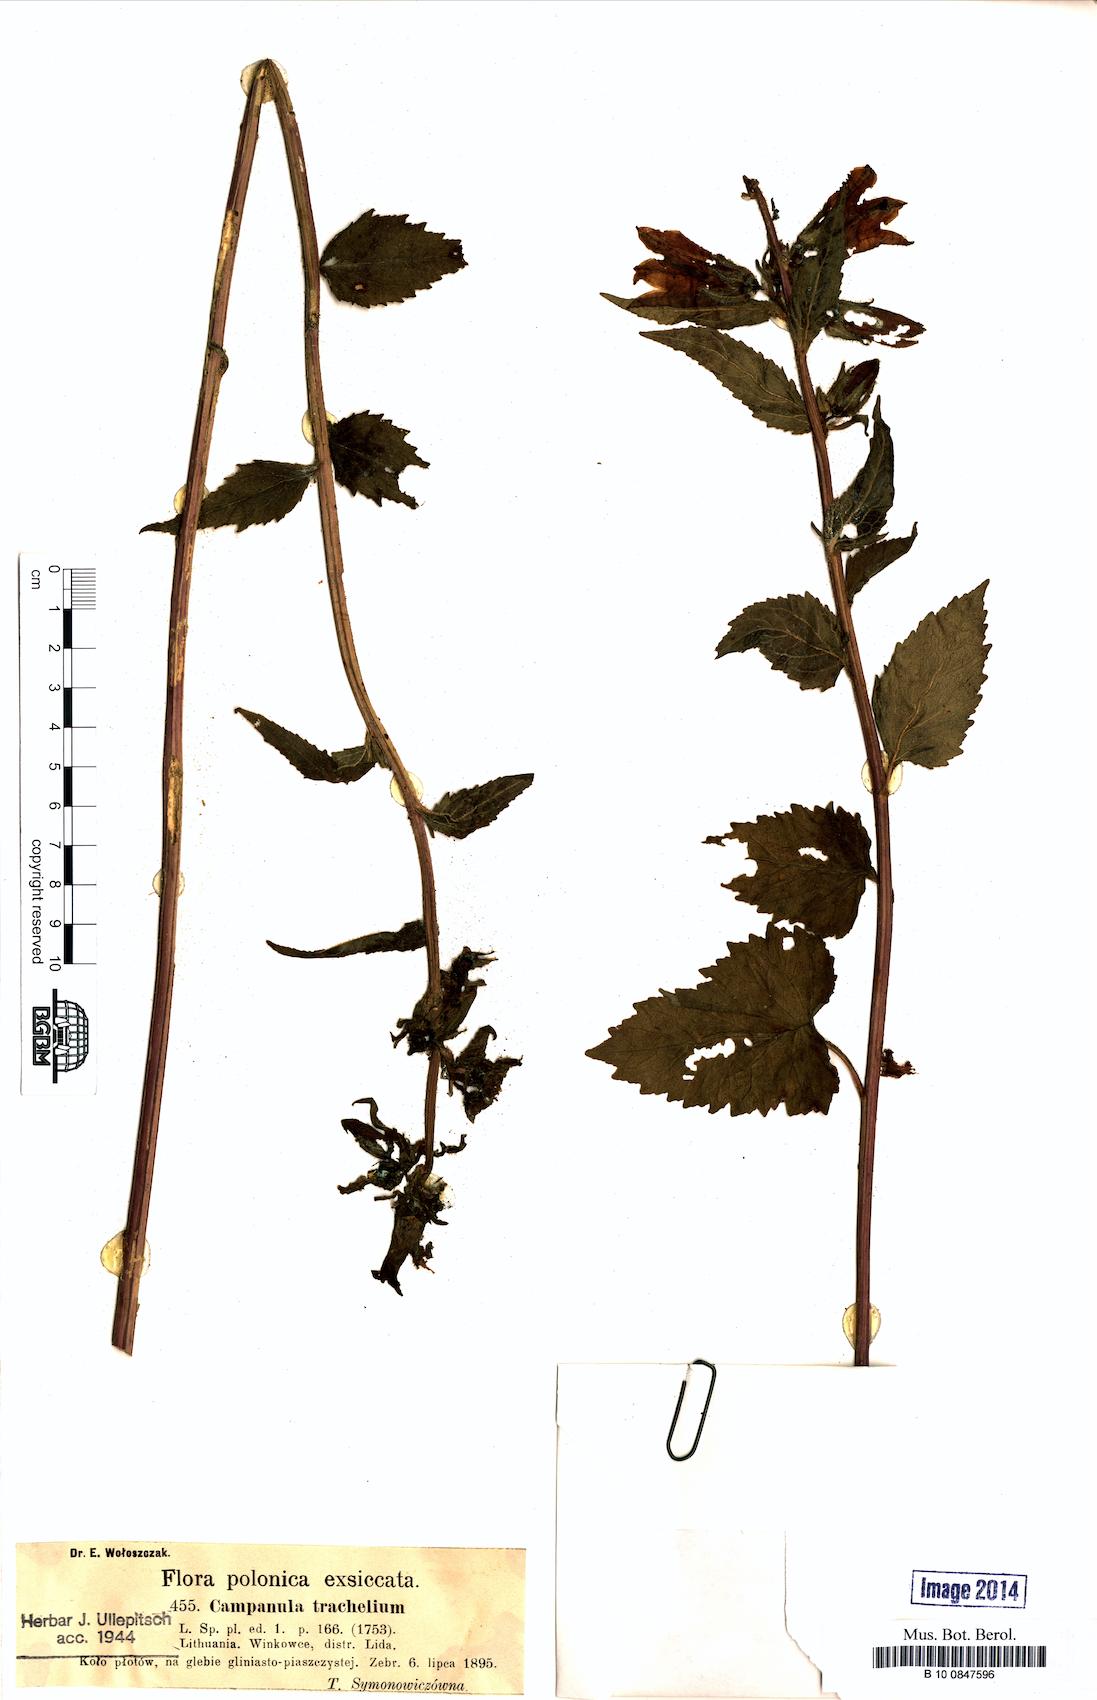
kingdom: Plantae
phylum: Tracheophyta
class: Magnoliopsida
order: Asterales
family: Campanulaceae
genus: Campanula
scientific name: Campanula trachelium
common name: Nettle-leaved bellflower
